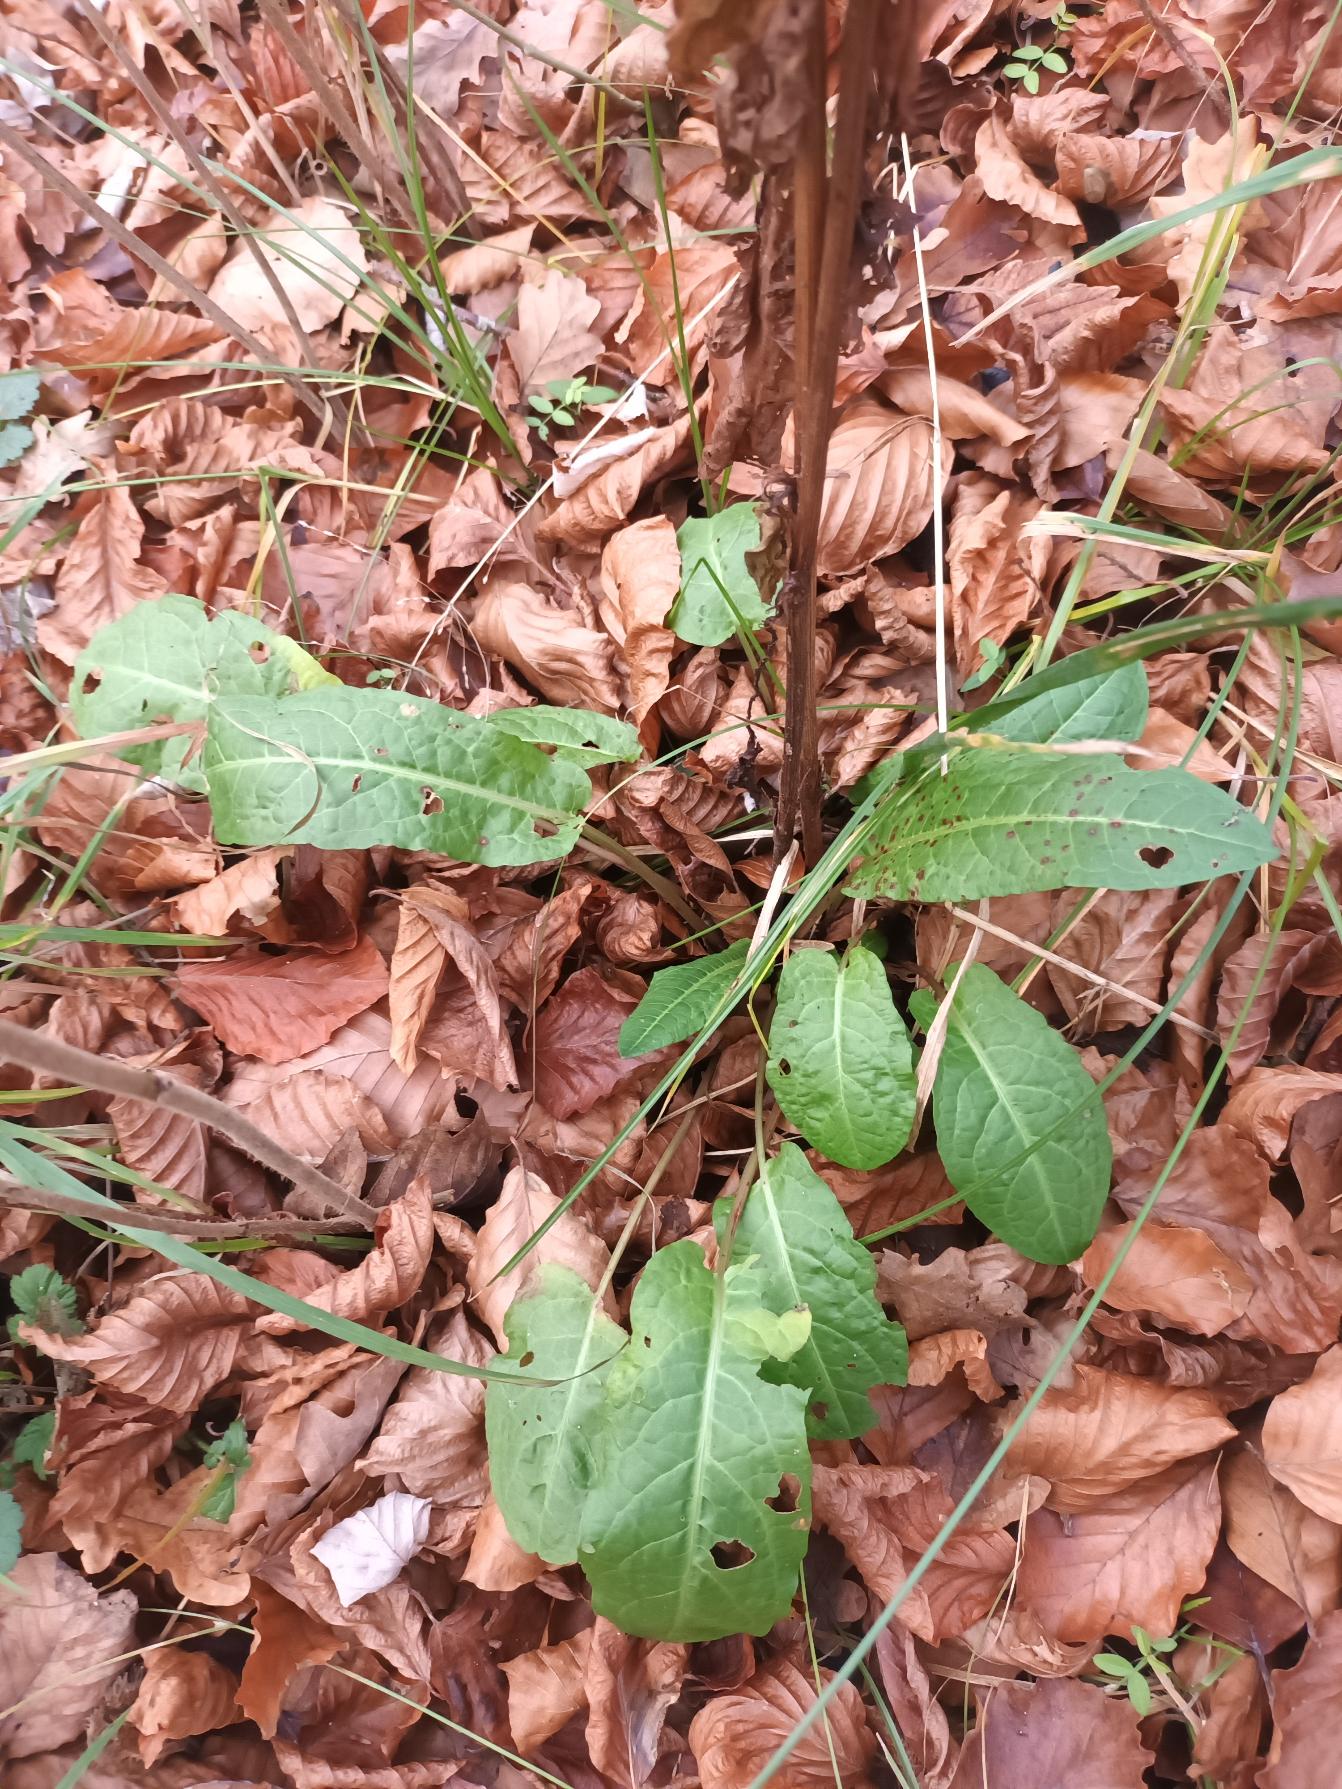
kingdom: Plantae
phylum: Tracheophyta
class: Magnoliopsida
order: Caryophyllales
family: Polygonaceae
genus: Rumex
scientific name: Rumex sanguineus
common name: Skov-skræppe
